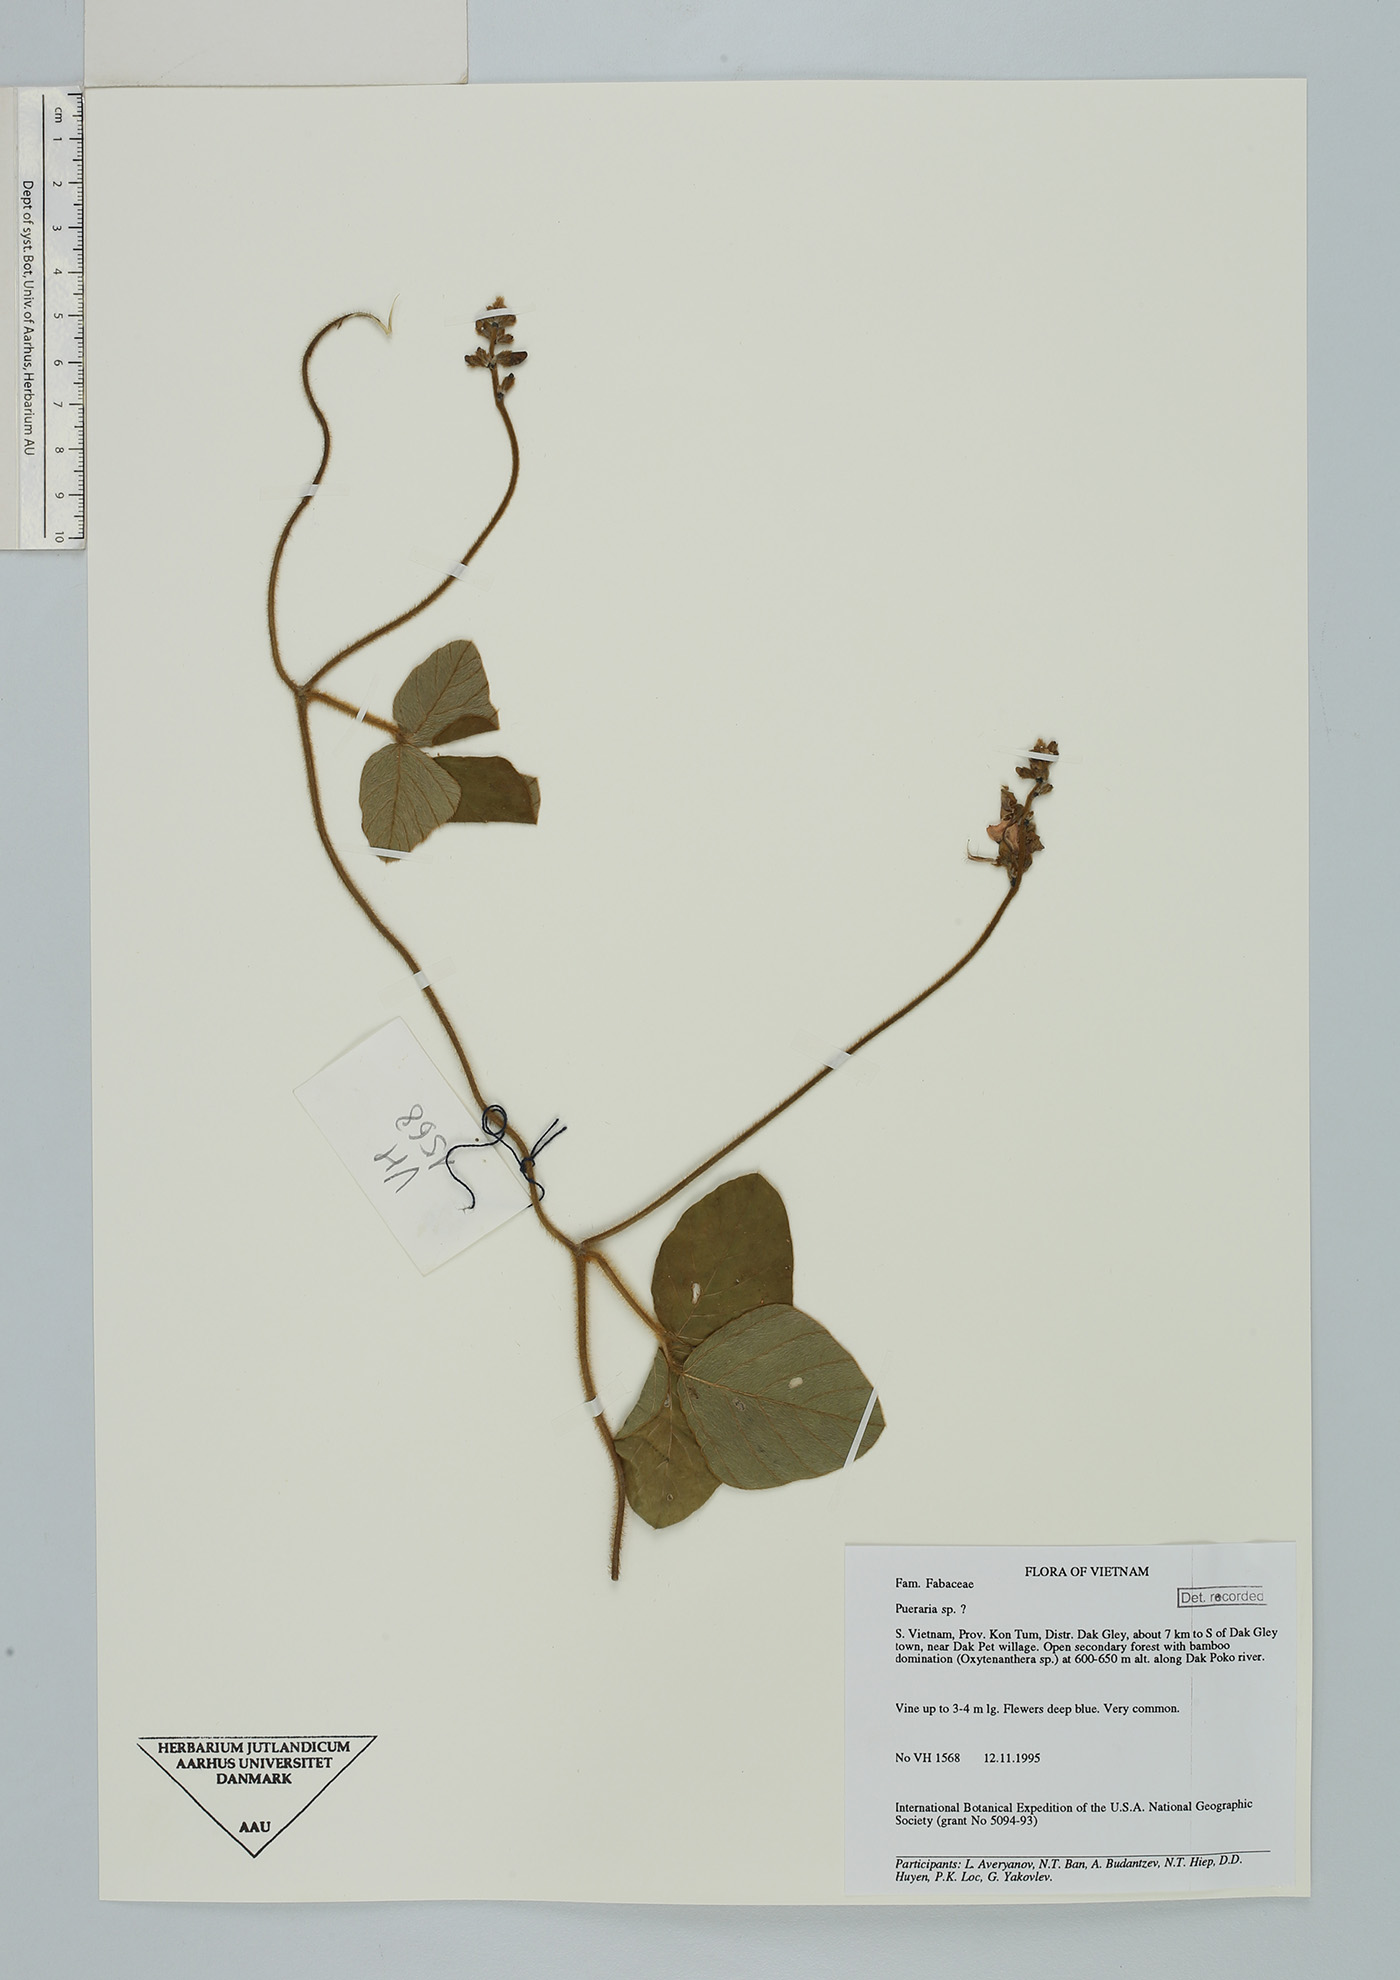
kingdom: Plantae
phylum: Tracheophyta
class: Magnoliopsida
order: Fabales
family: Fabaceae
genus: Neustanthus
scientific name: Neustanthus phaseoloides
